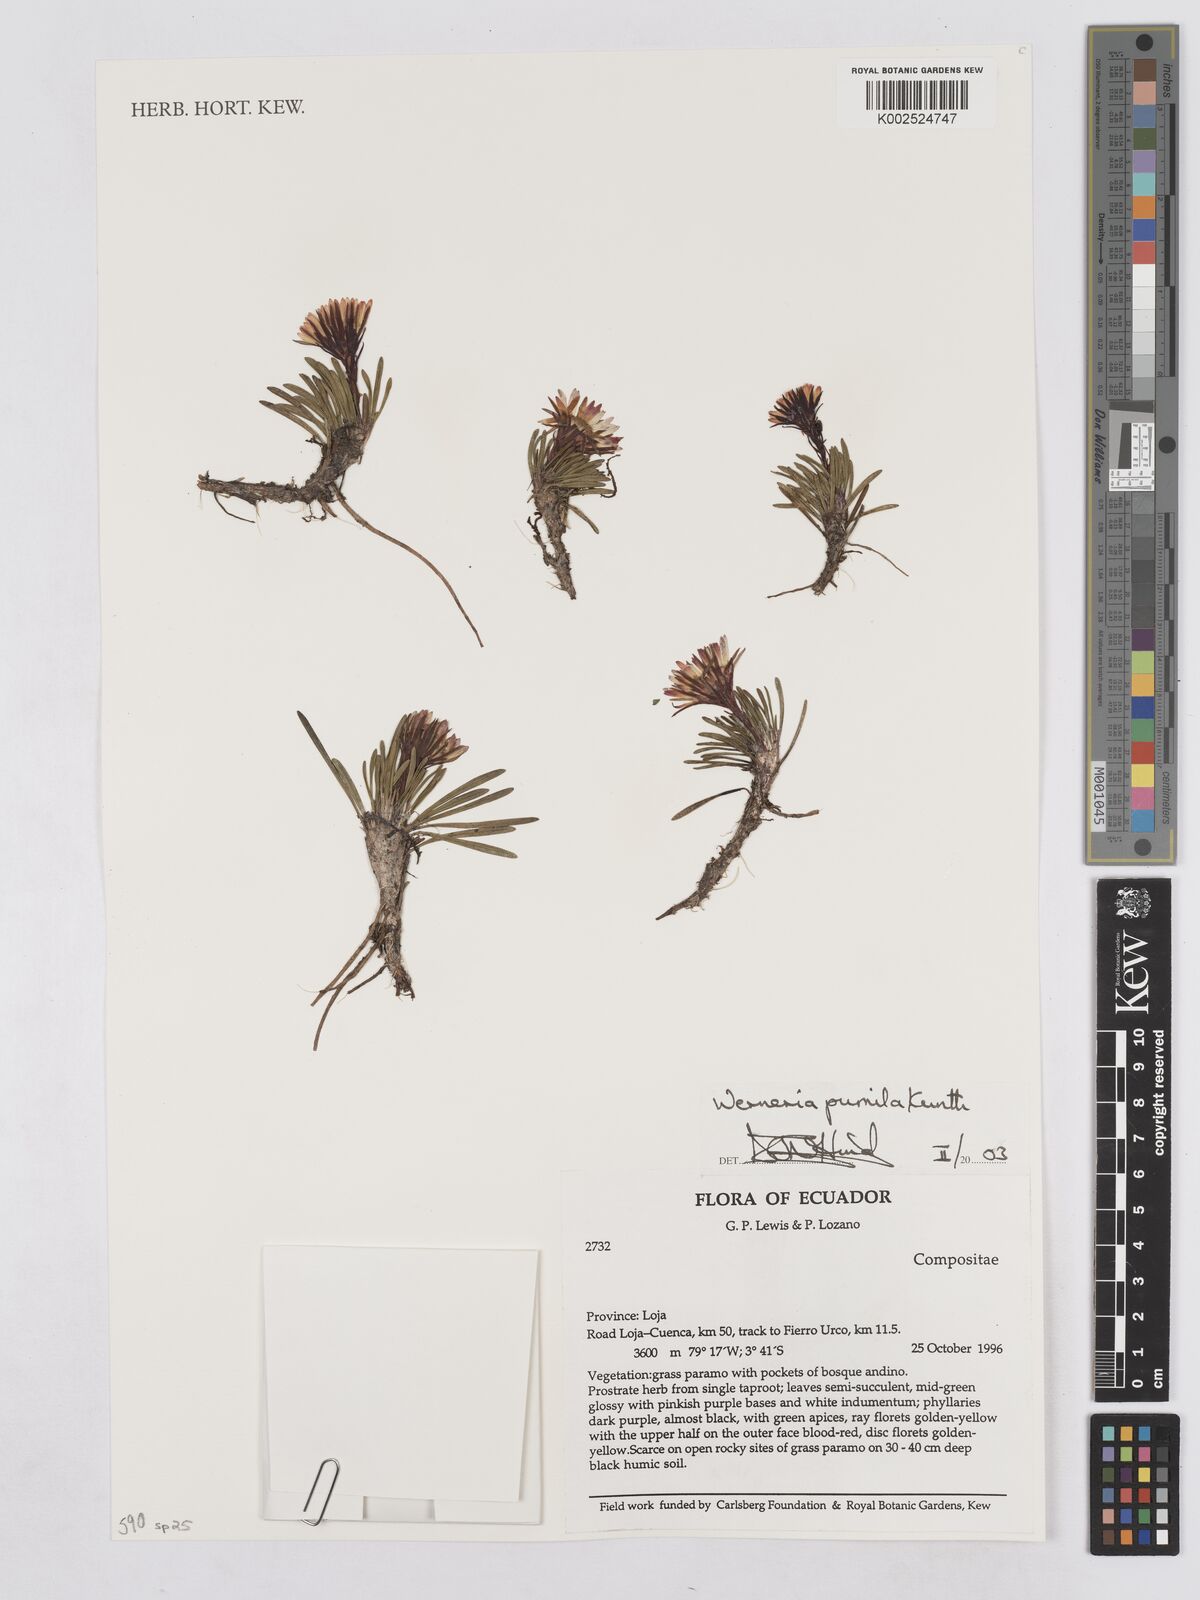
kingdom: Plantae
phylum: Tracheophyta
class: Magnoliopsida
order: Asterales
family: Asteraceae
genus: Rockhausenia
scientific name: Rockhausenia pumila
